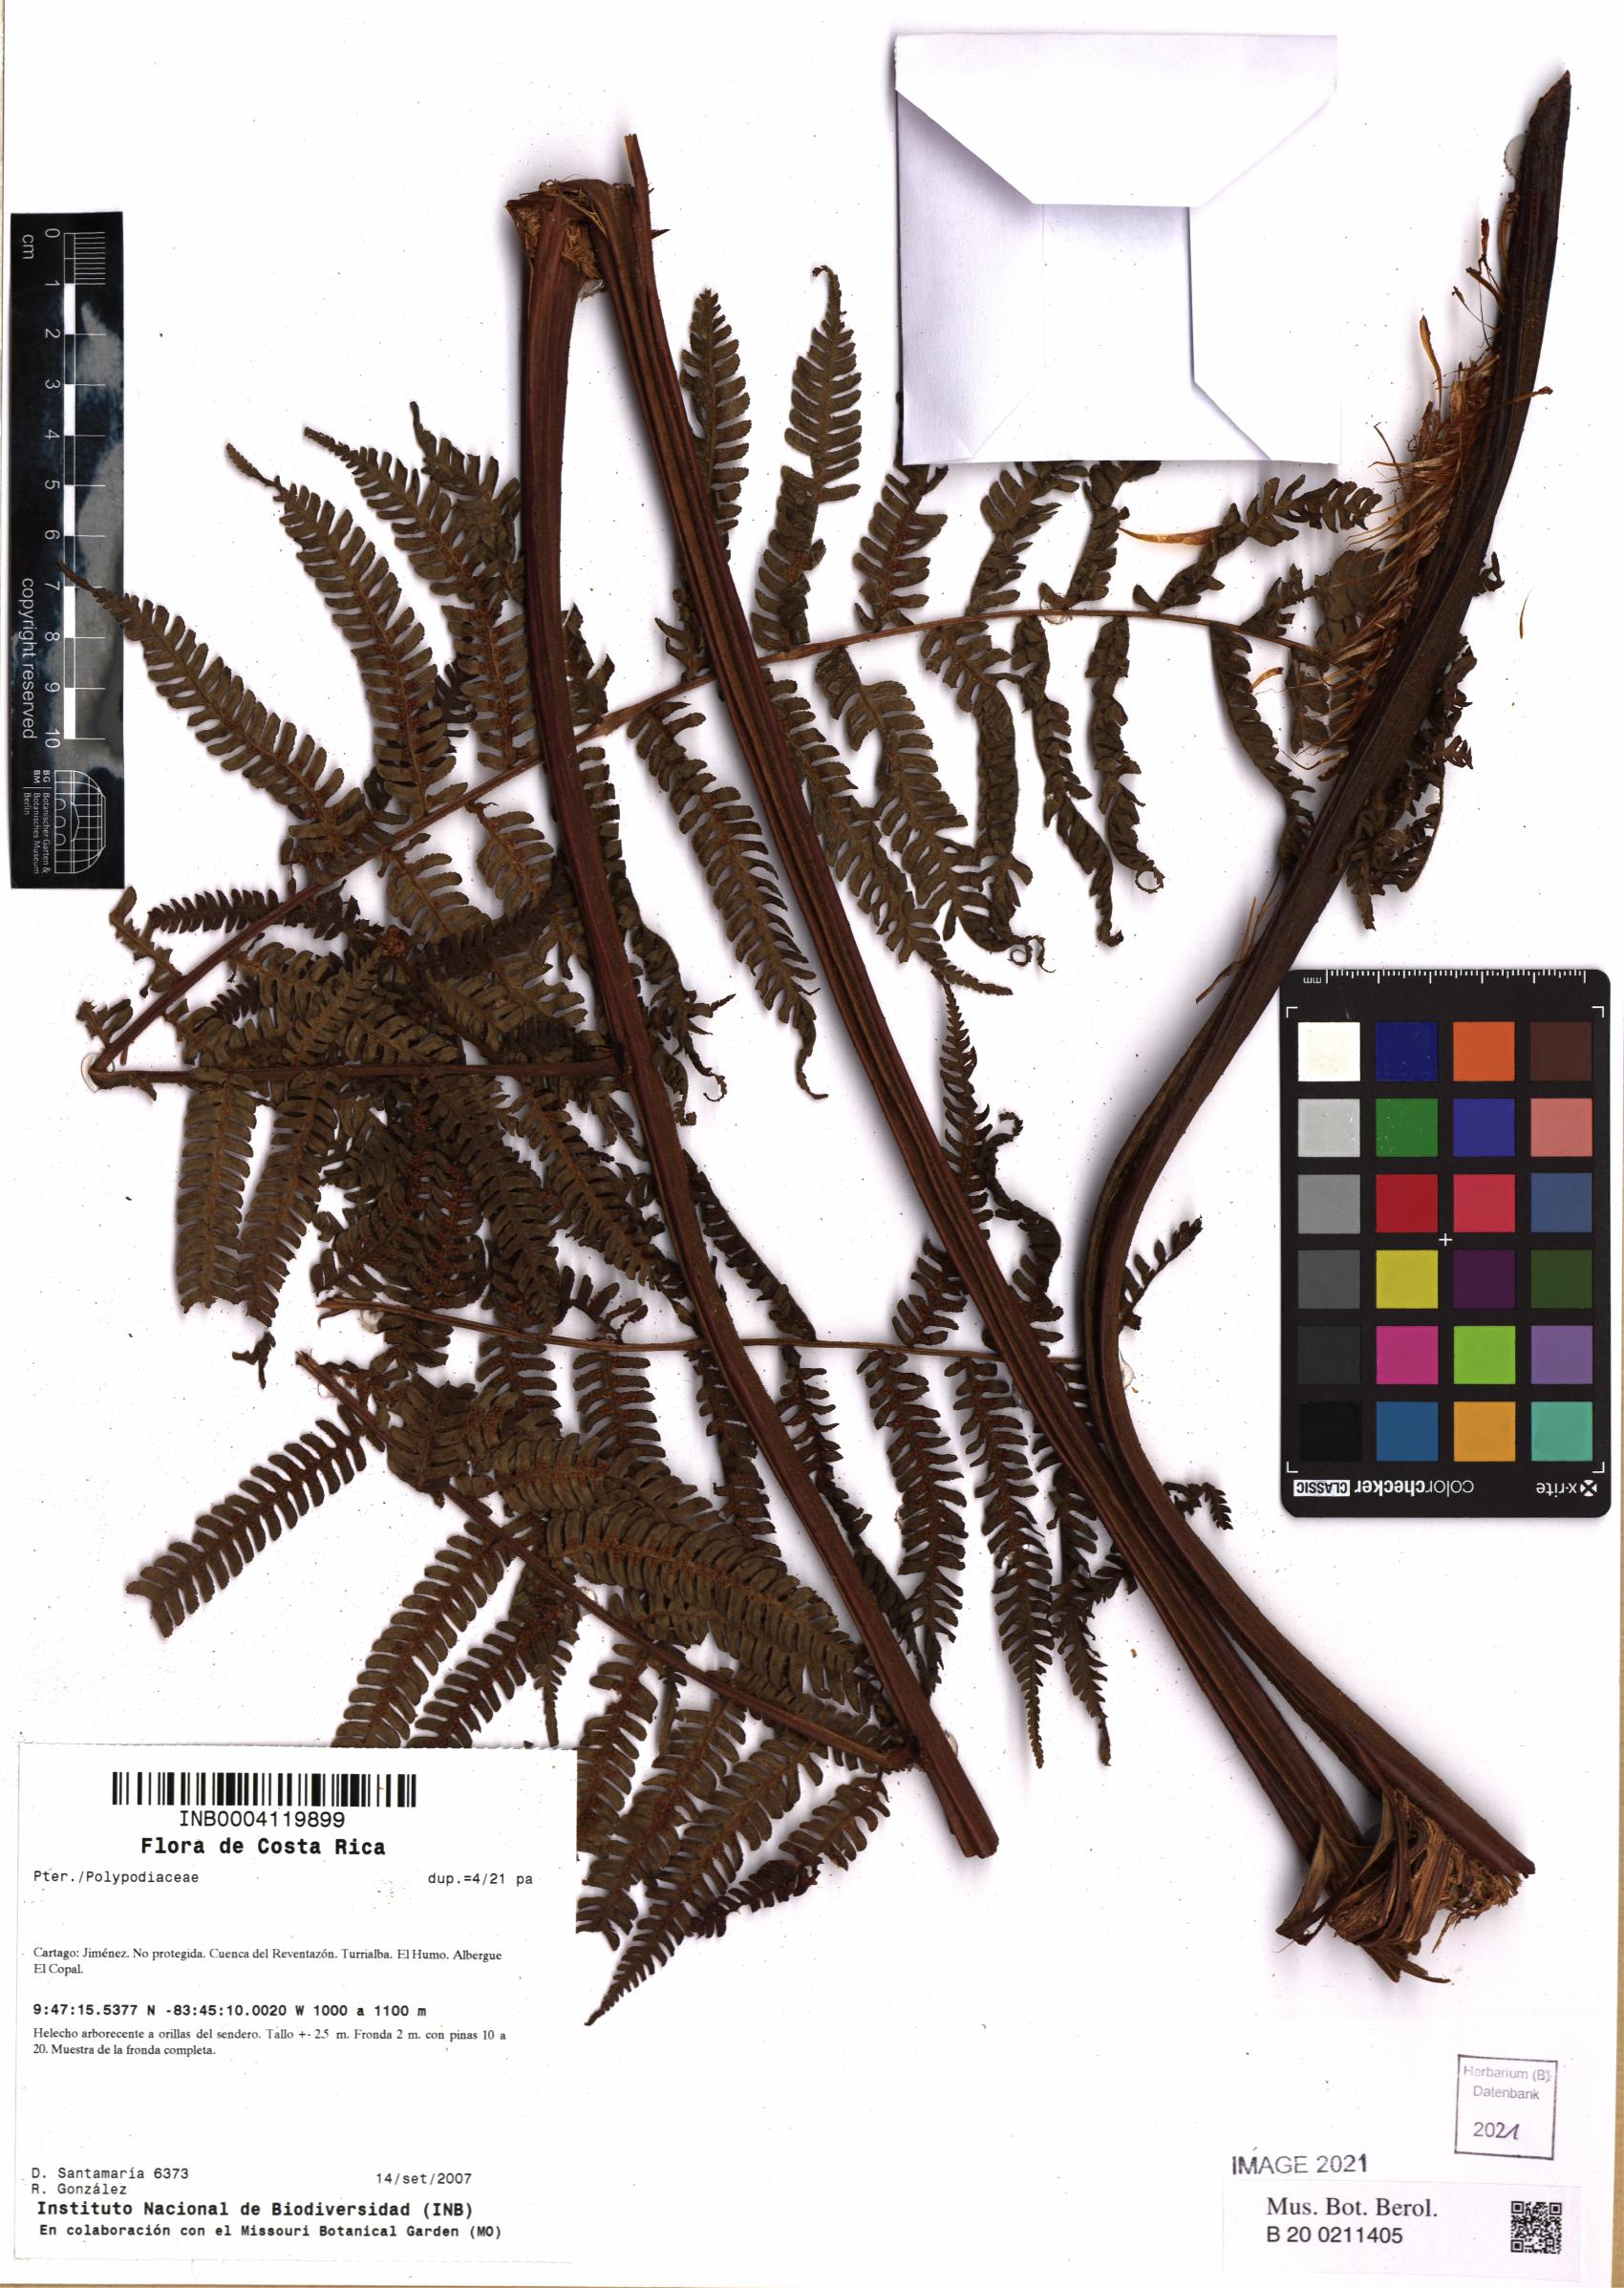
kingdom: Plantae
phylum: Tracheophyta
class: Polypodiopsida
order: Polypodiales
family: Polypodiaceae
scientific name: Polypodiaceae
